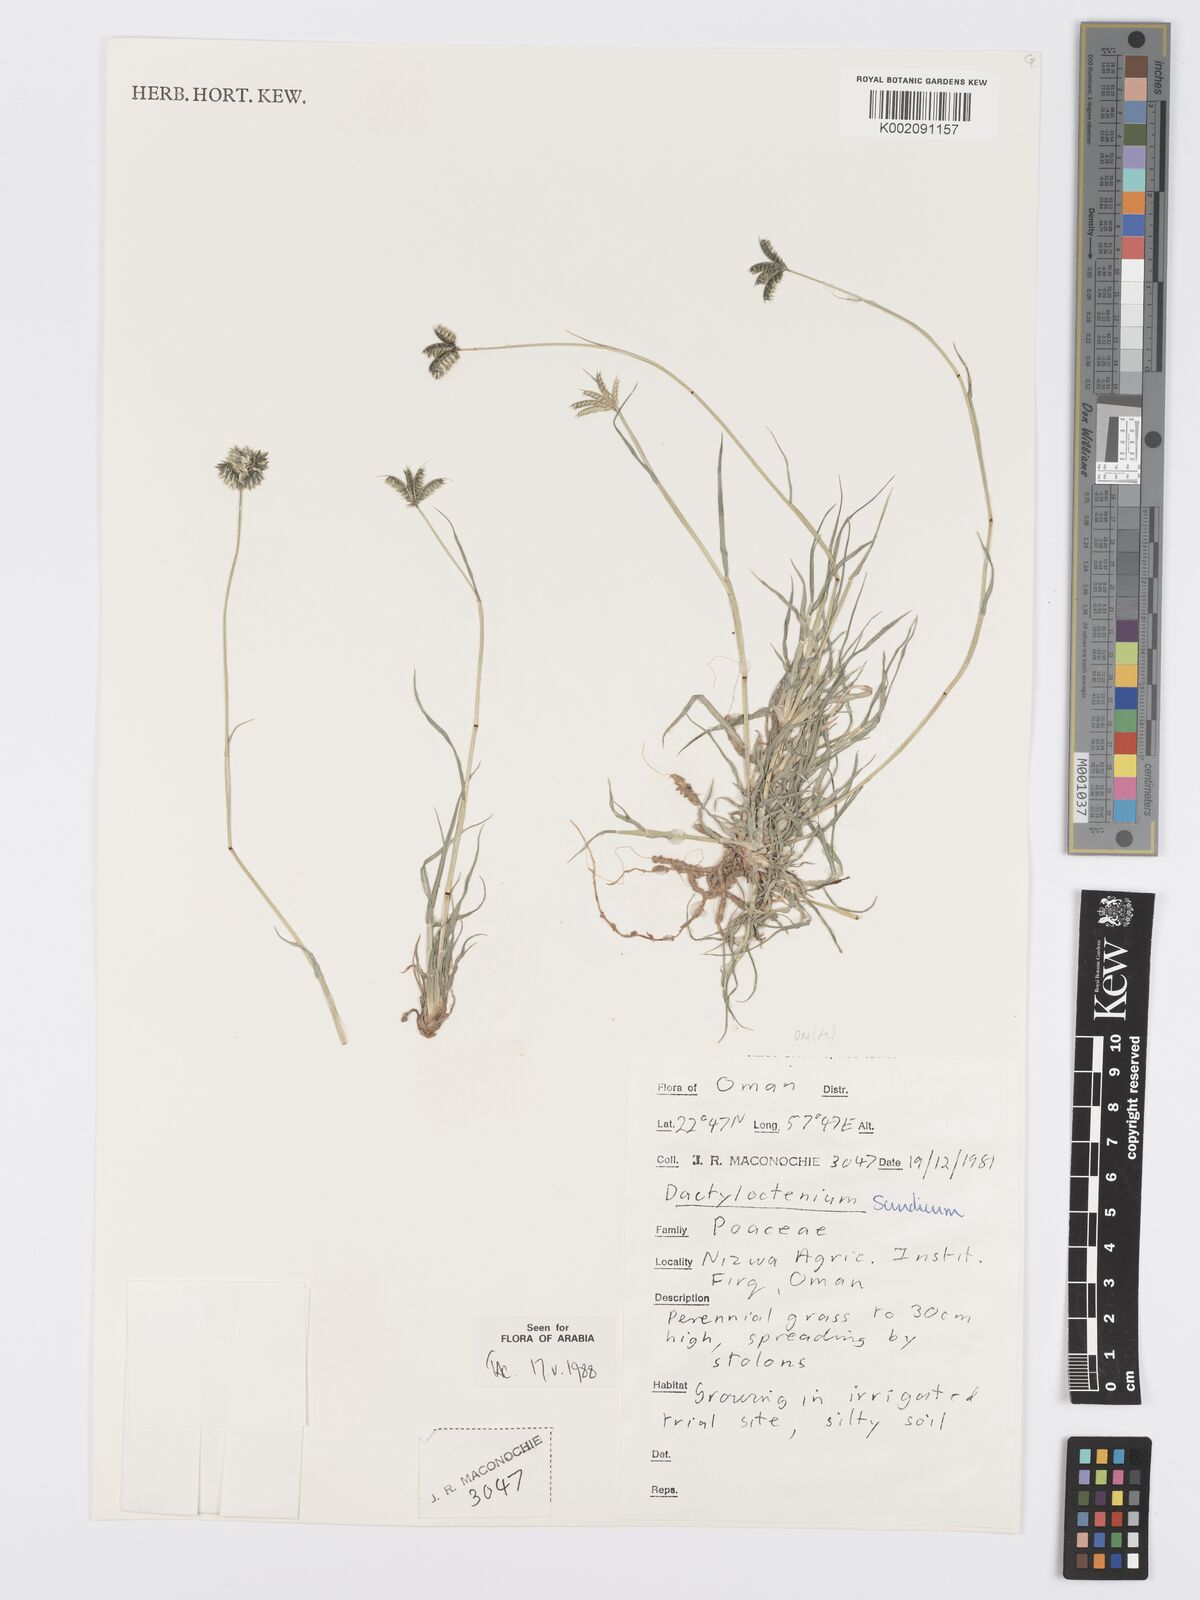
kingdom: Plantae
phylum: Tracheophyta
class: Liliopsida
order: Poales
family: Poaceae
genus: Dactyloctenium
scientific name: Dactyloctenium scindicum
